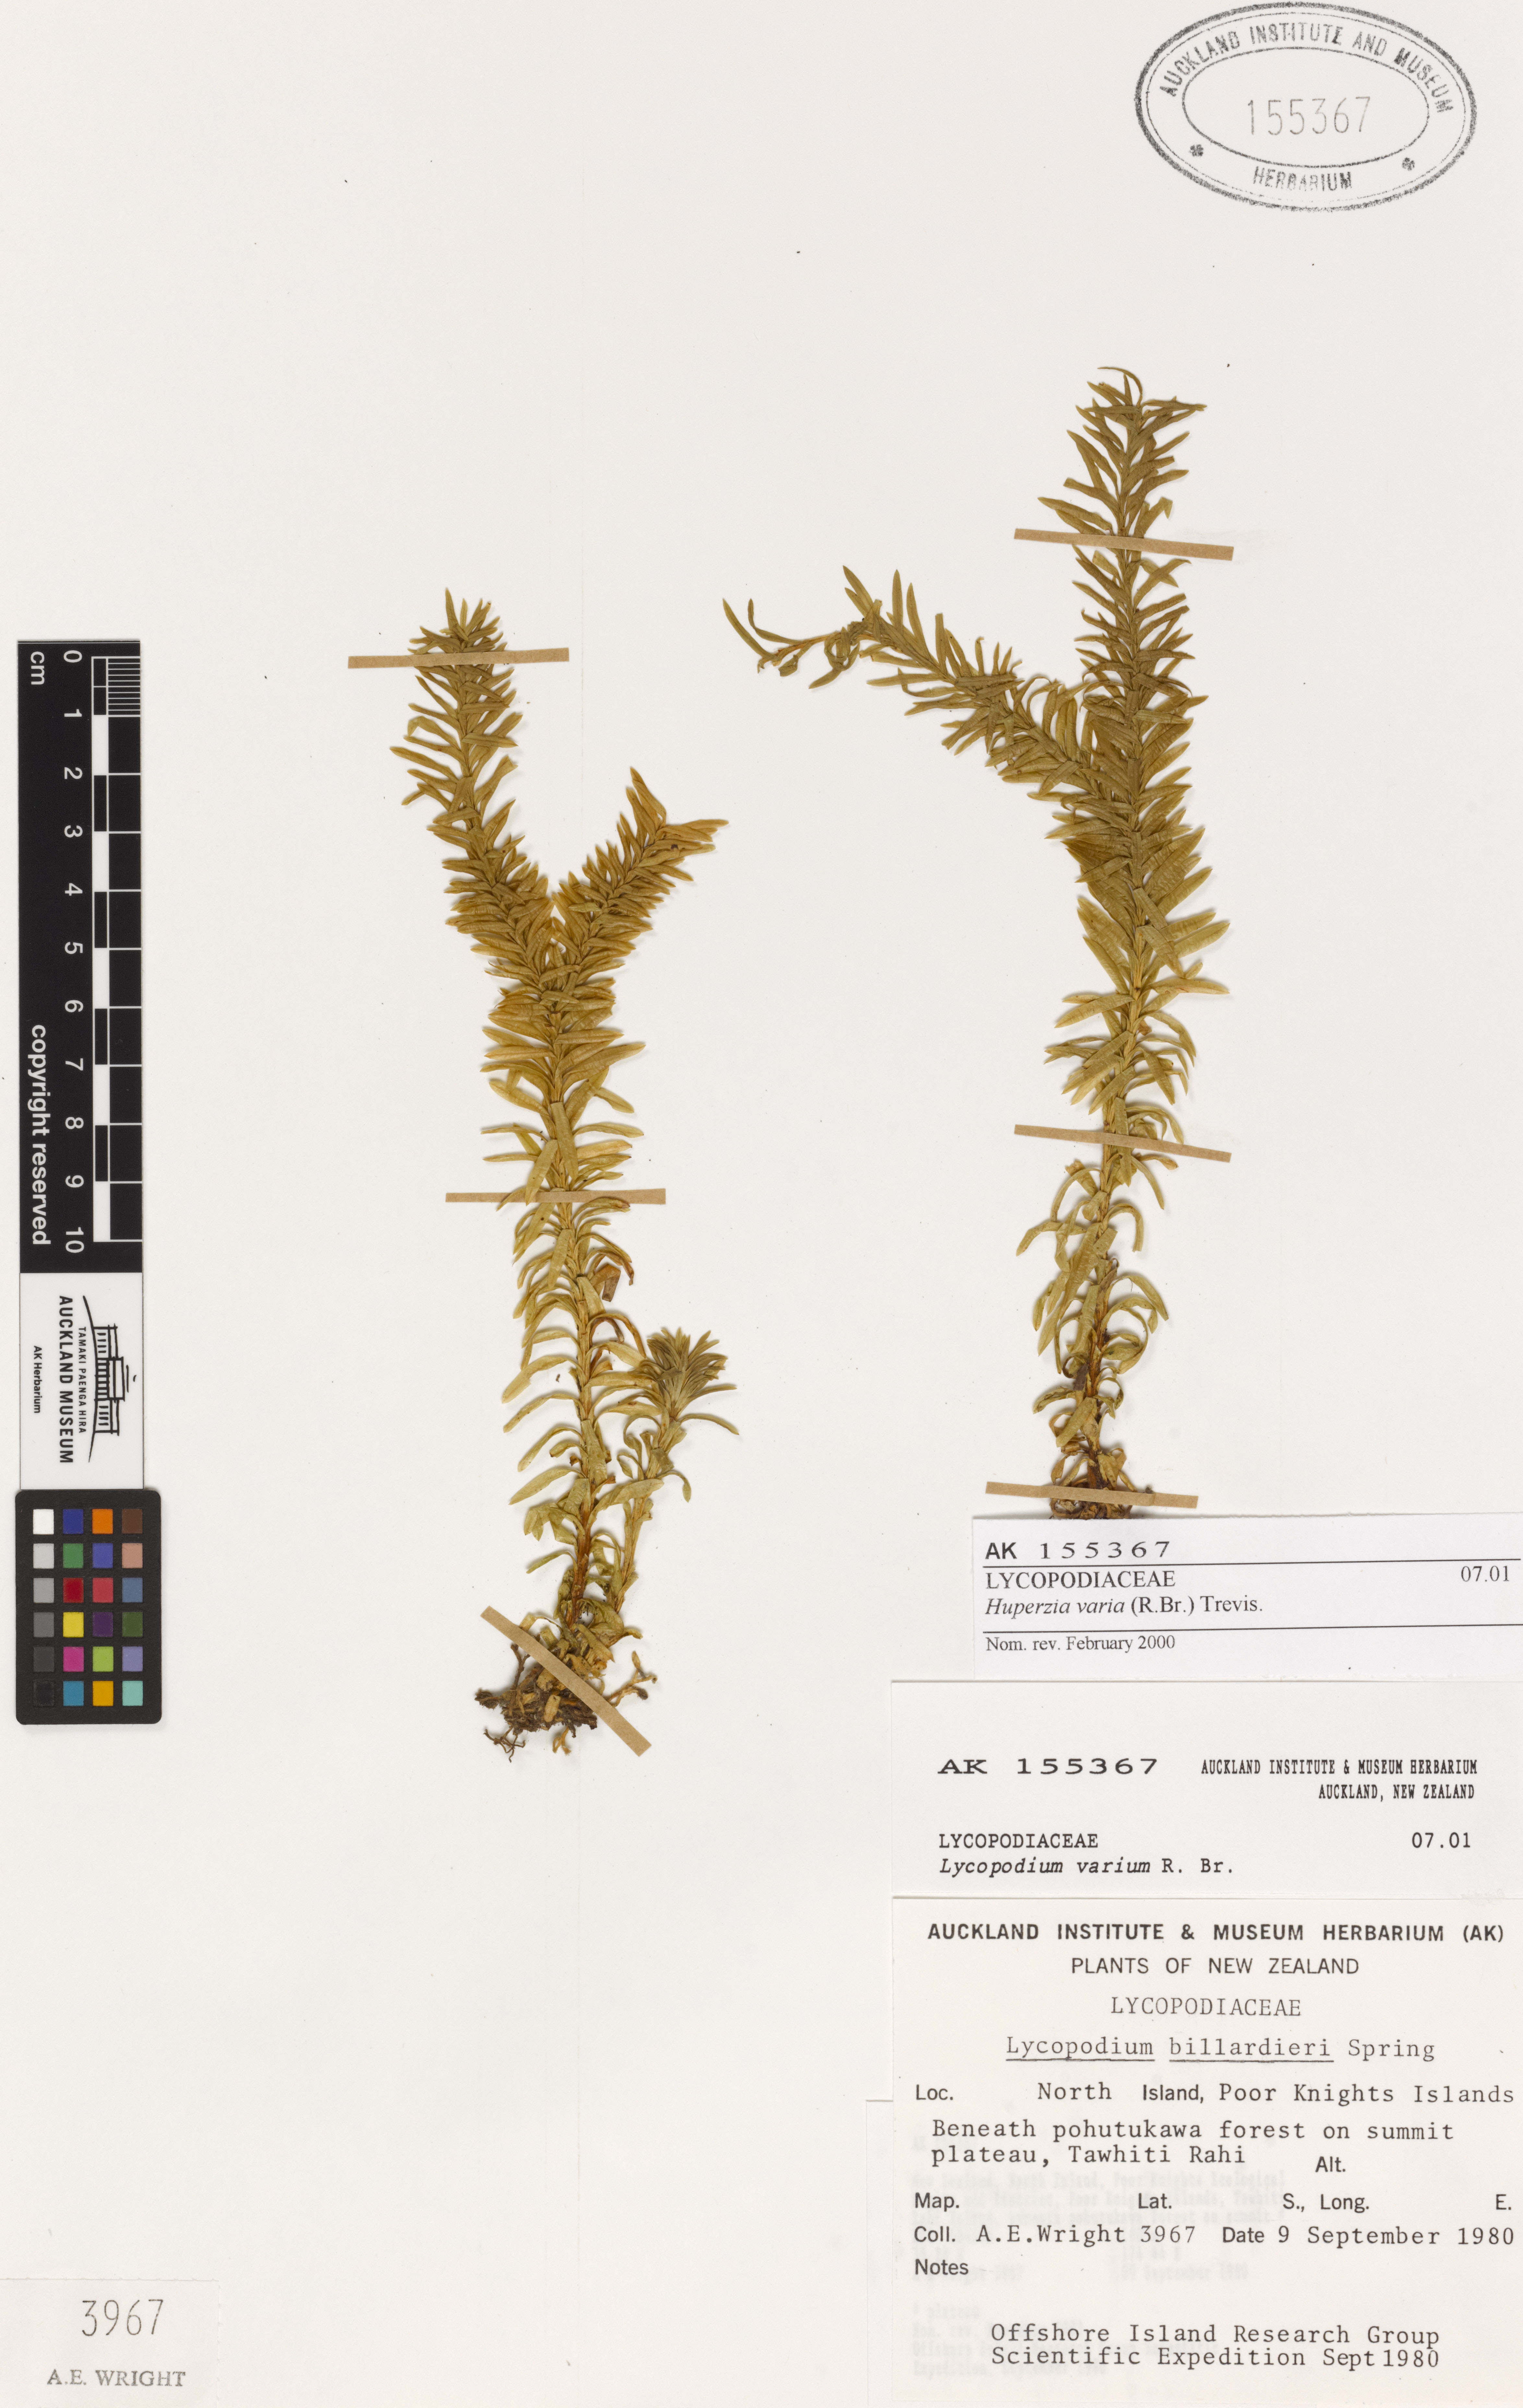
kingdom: Plantae
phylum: Tracheophyta
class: Lycopodiopsida
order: Lycopodiales
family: Lycopodiaceae
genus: Phlegmariurus
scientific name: Phlegmariurus
